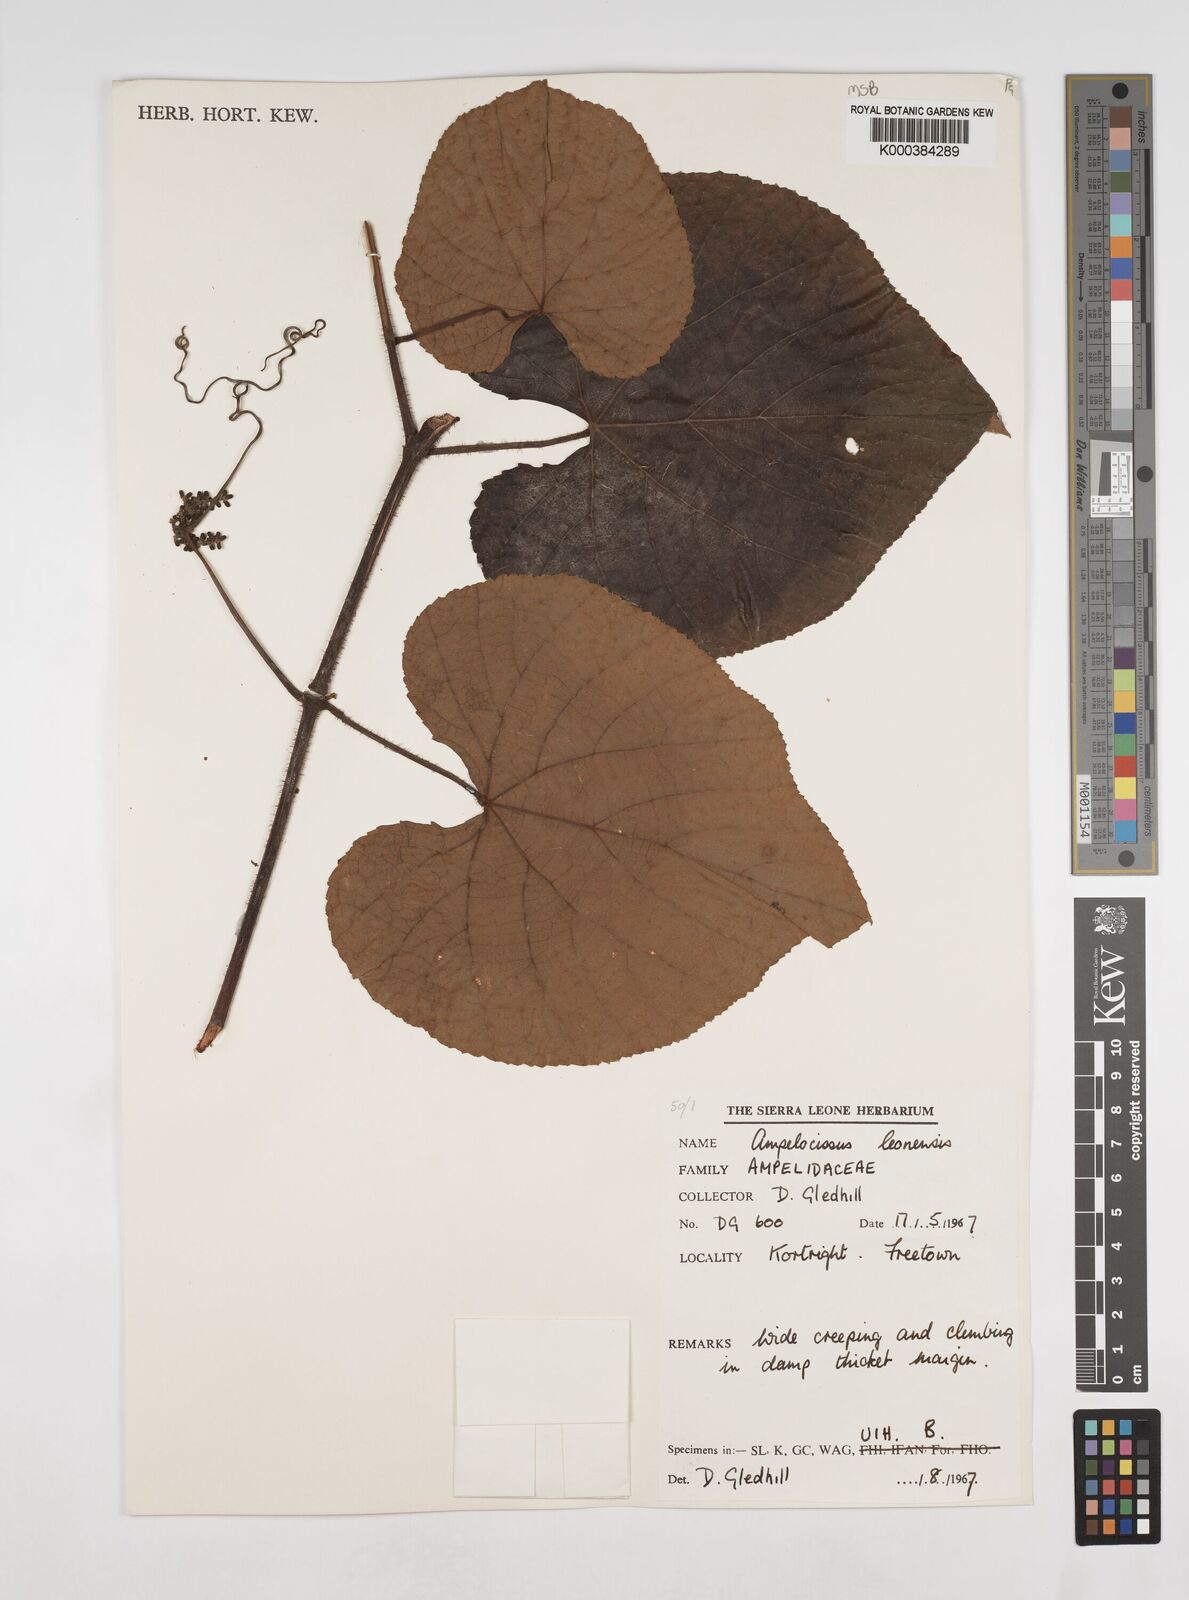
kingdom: Plantae
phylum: Tracheophyta
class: Magnoliopsida
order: Vitales
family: Vitaceae
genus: Ampelocissus
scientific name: Ampelocissus leonensis
